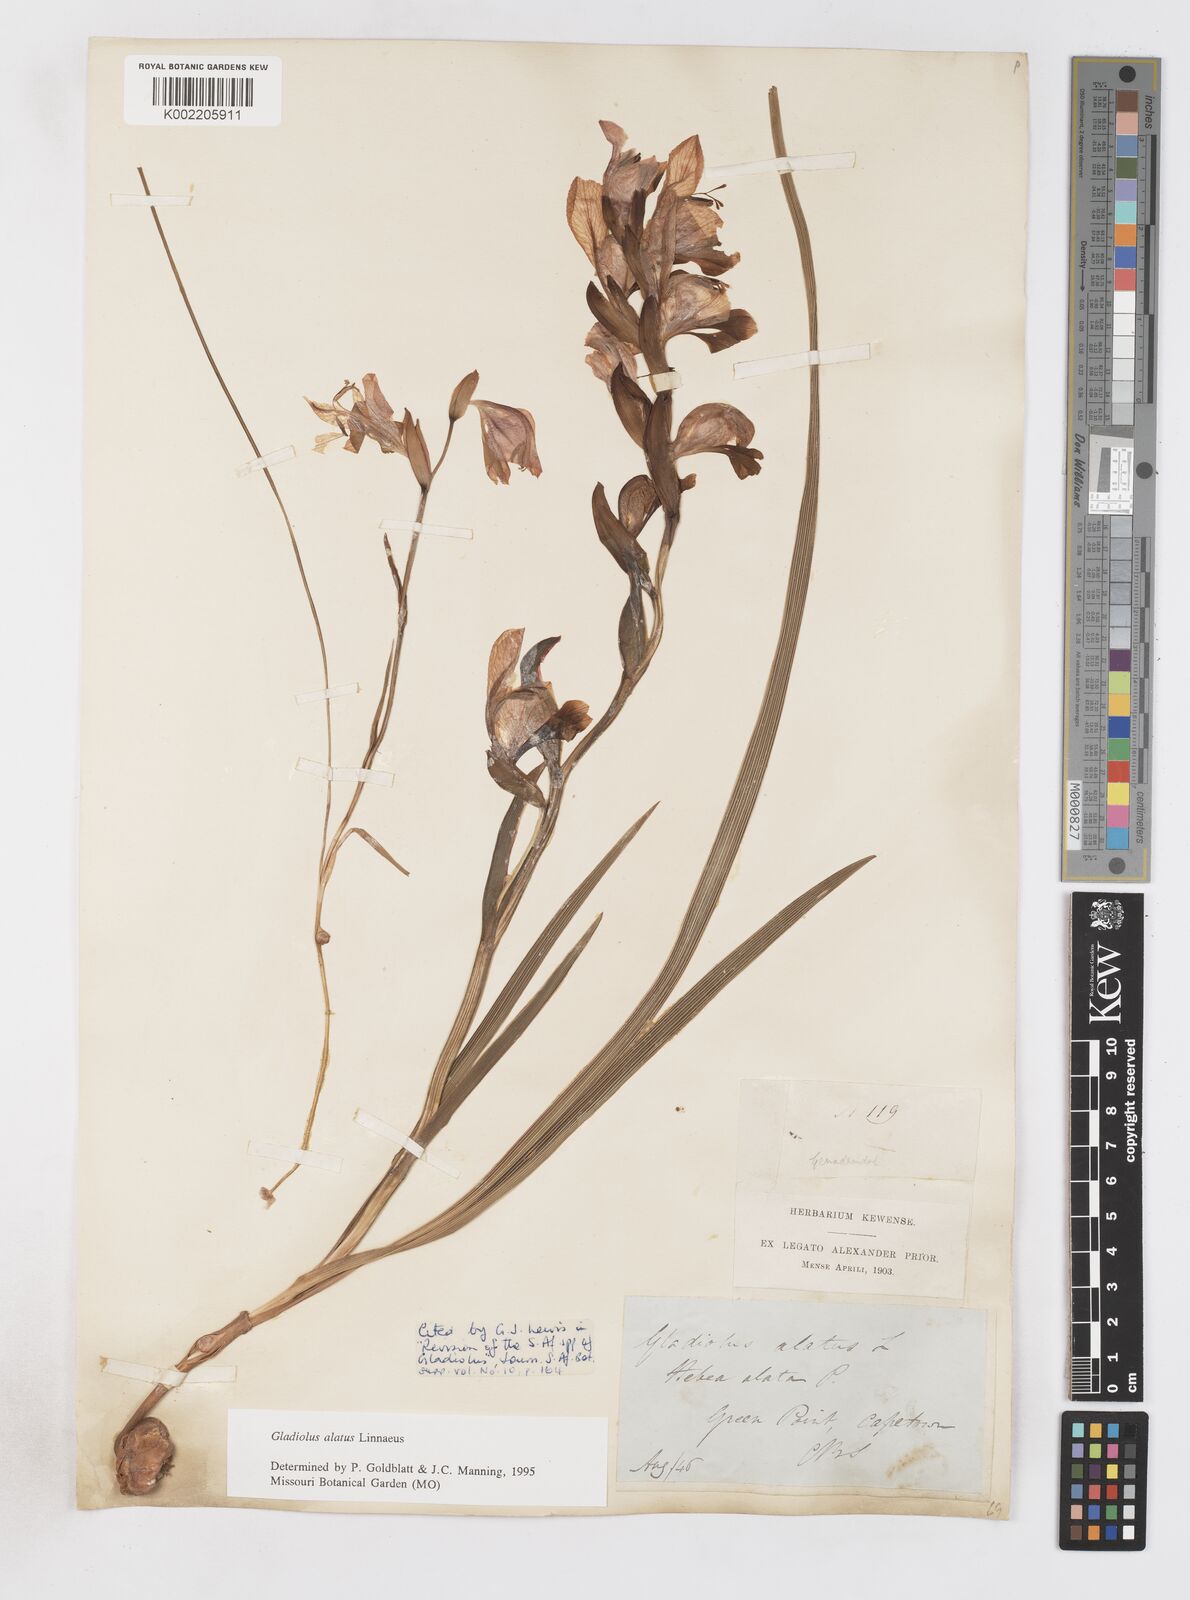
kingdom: Plantae
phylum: Tracheophyta
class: Liliopsida
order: Asparagales
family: Iridaceae
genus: Gladiolus
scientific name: Gladiolus alatus
